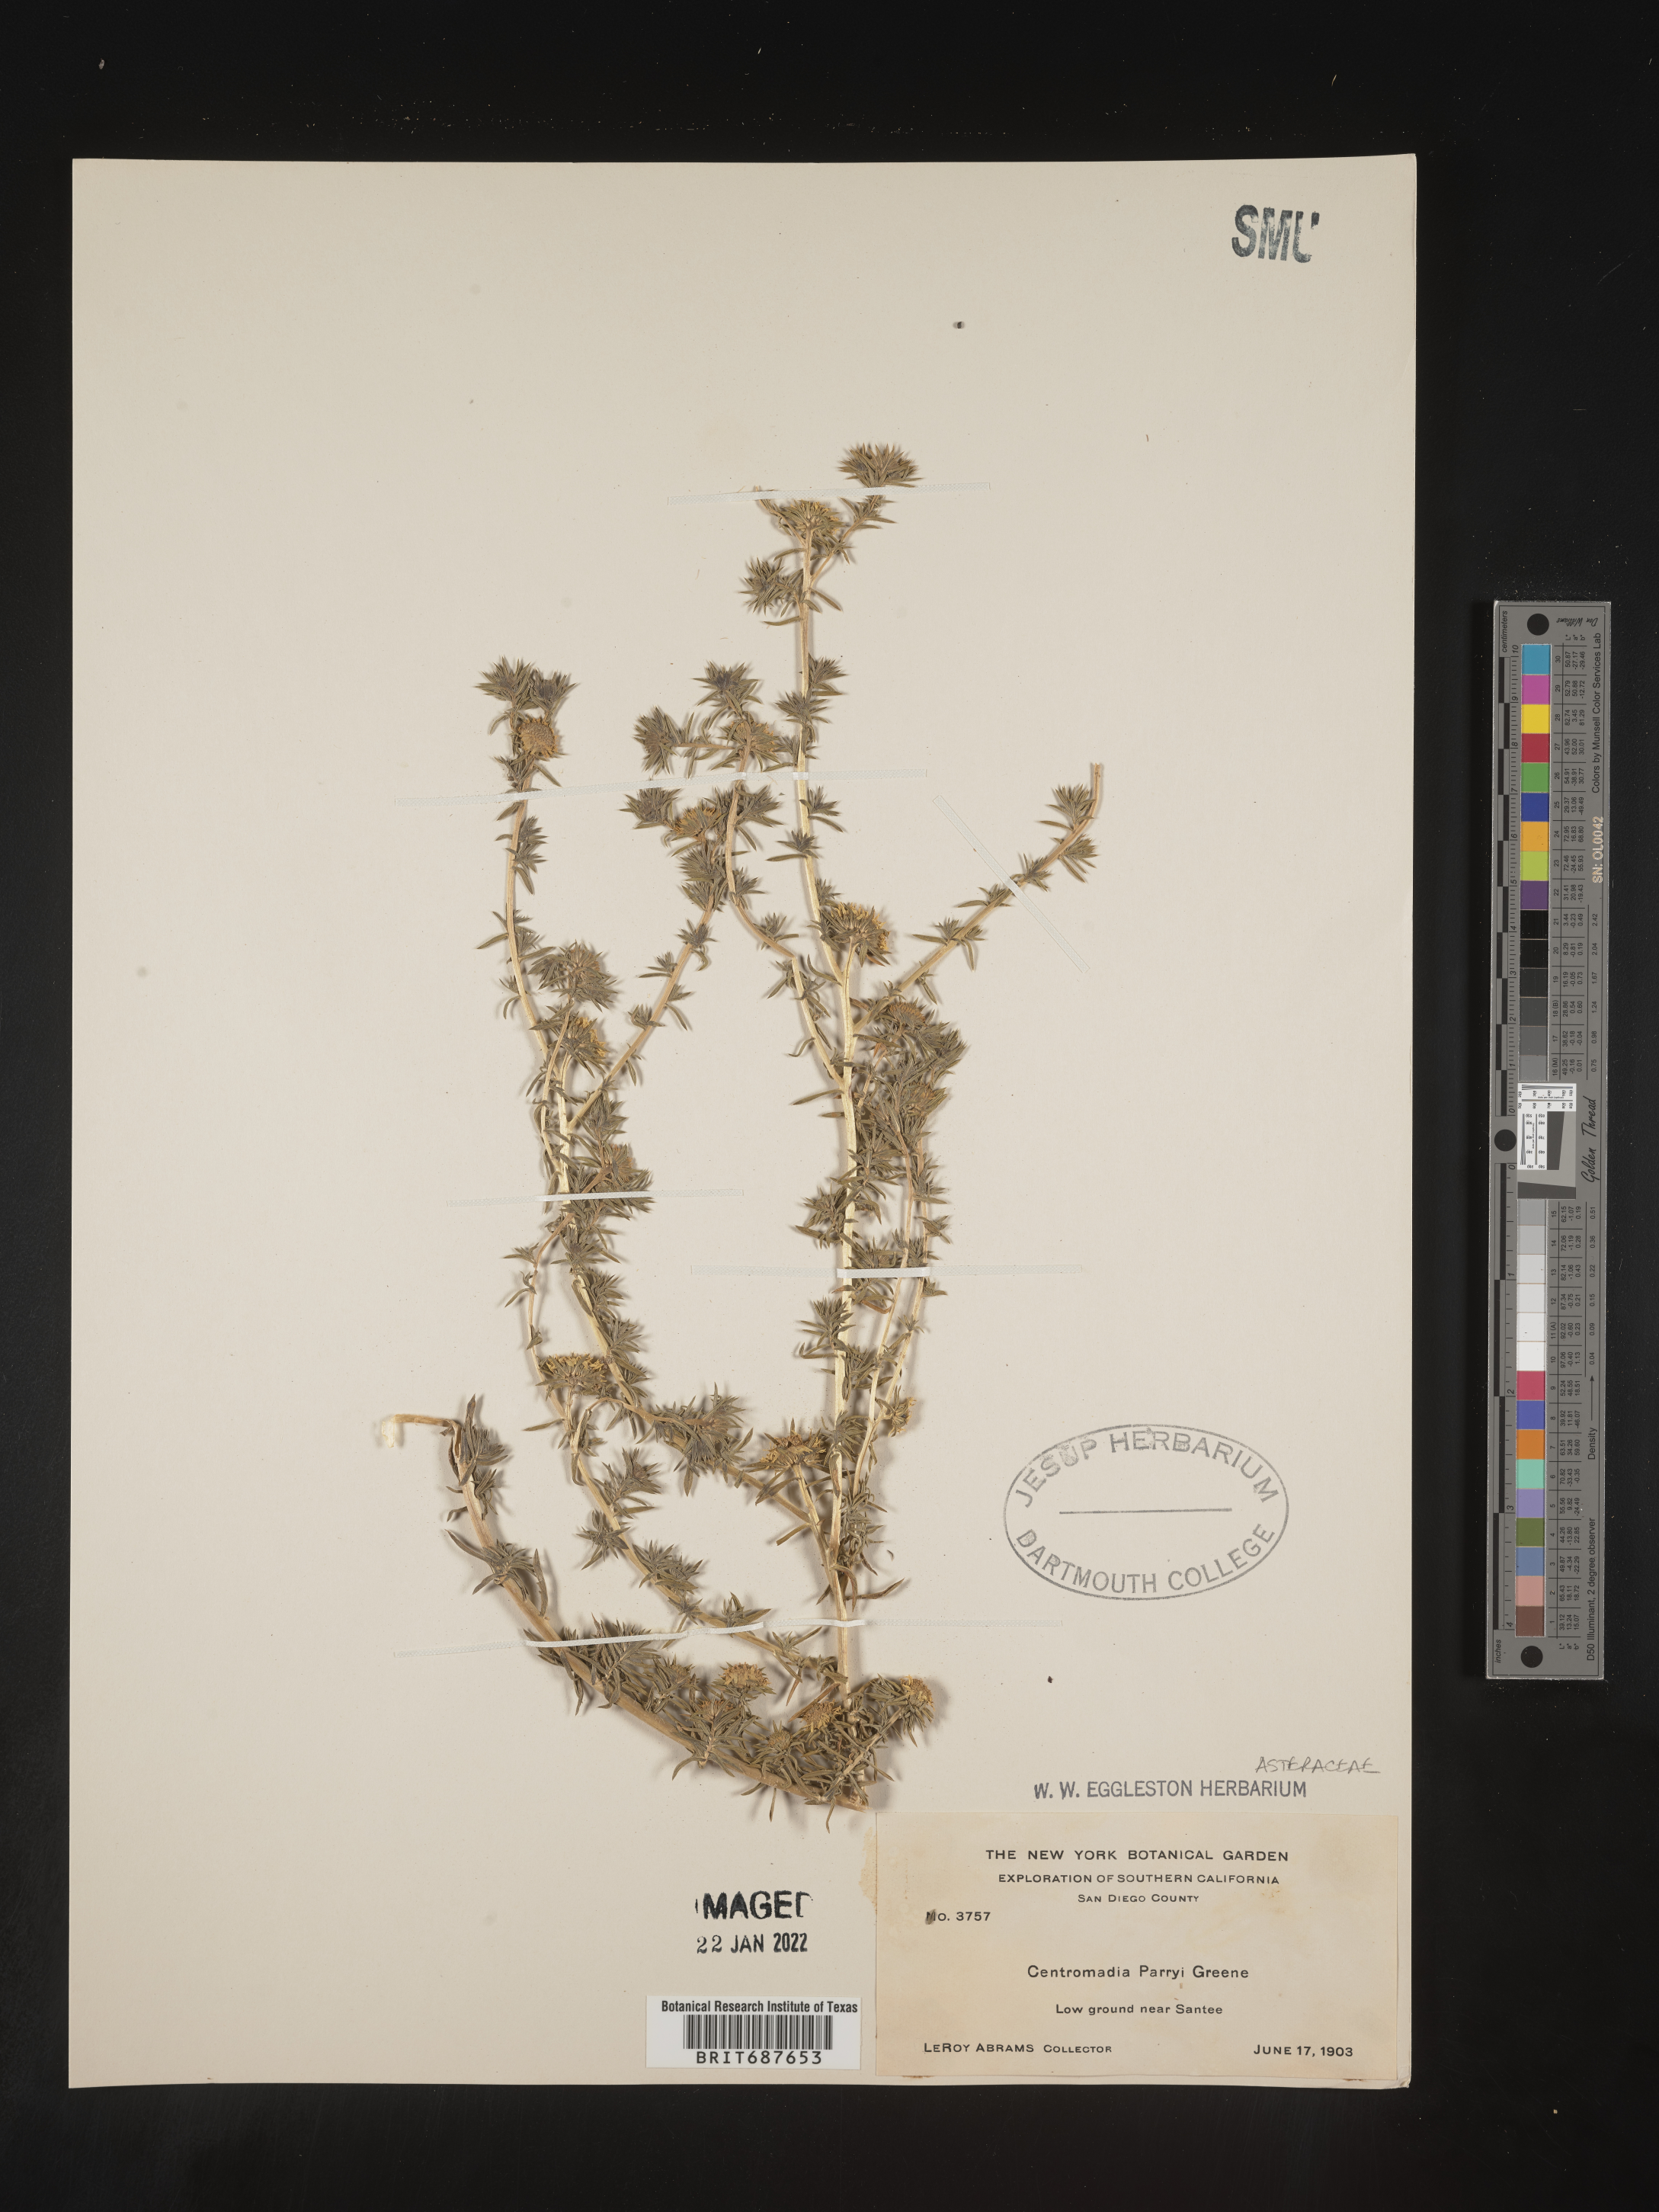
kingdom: Plantae
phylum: Tracheophyta
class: Magnoliopsida
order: Asterales
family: Asteraceae
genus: Centromadia
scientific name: Centromadia
